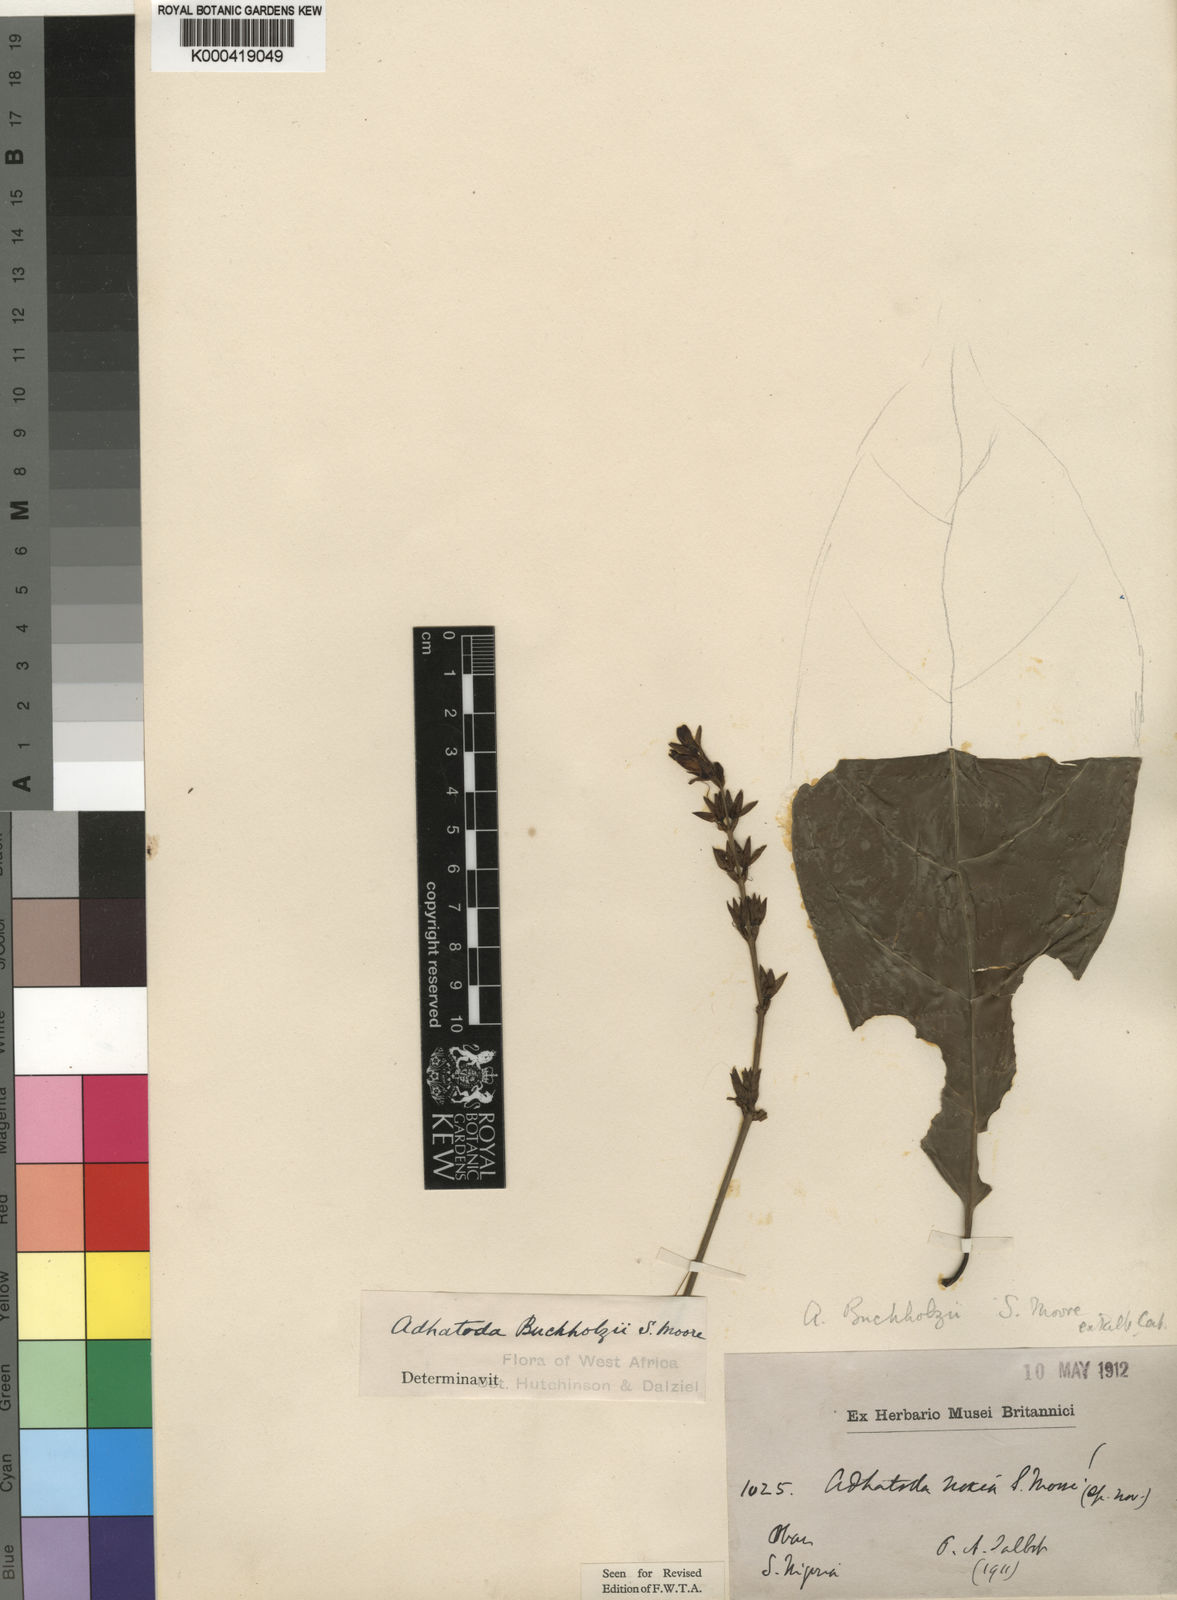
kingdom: Plantae
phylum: Tracheophyta
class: Magnoliopsida
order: Lamiales
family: Acanthaceae
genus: Justicia
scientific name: Justicia buchholzii
